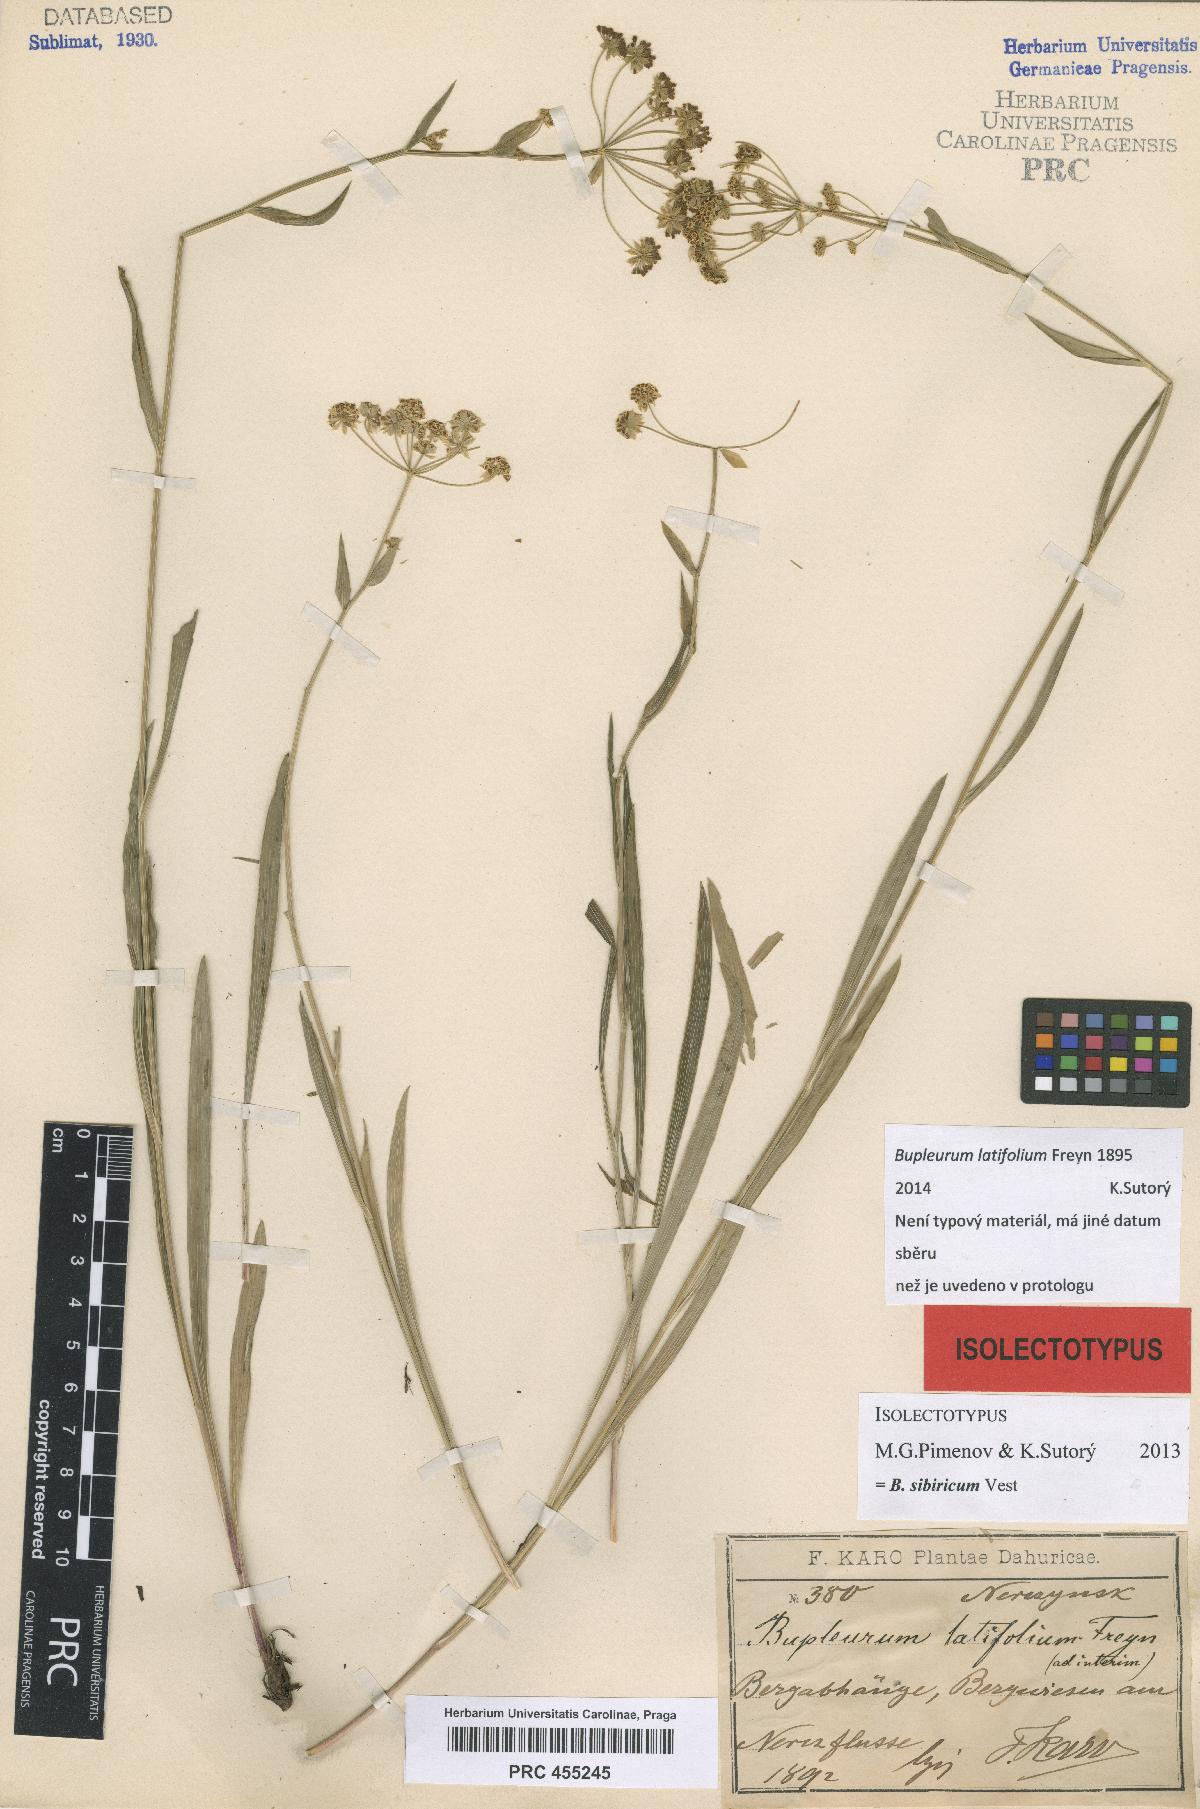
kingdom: Plantae
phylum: Tracheophyta
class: Magnoliopsida
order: Apiales
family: Apiaceae
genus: Bupleurum
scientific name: Bupleurum sibiricum
